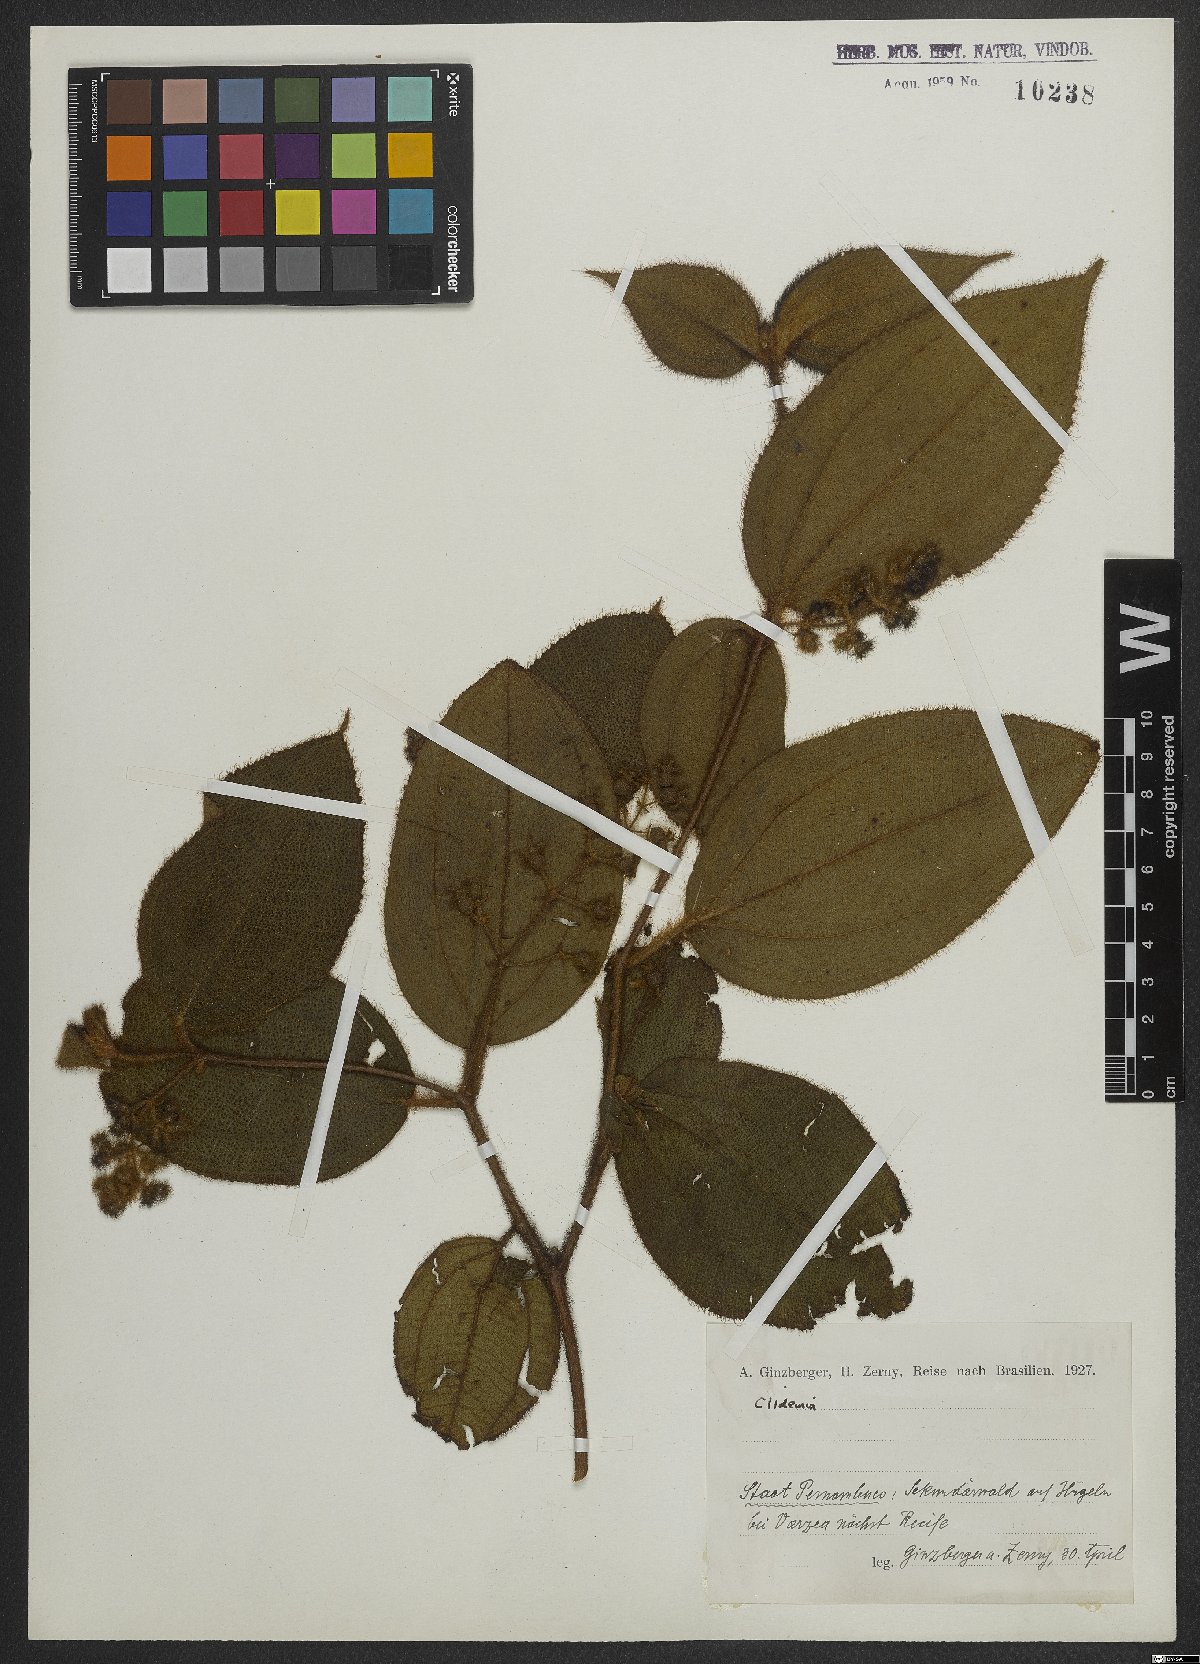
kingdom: Plantae
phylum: Tracheophyta
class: Magnoliopsida
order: Myrtales
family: Melastomataceae
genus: Miconia
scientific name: Miconia
